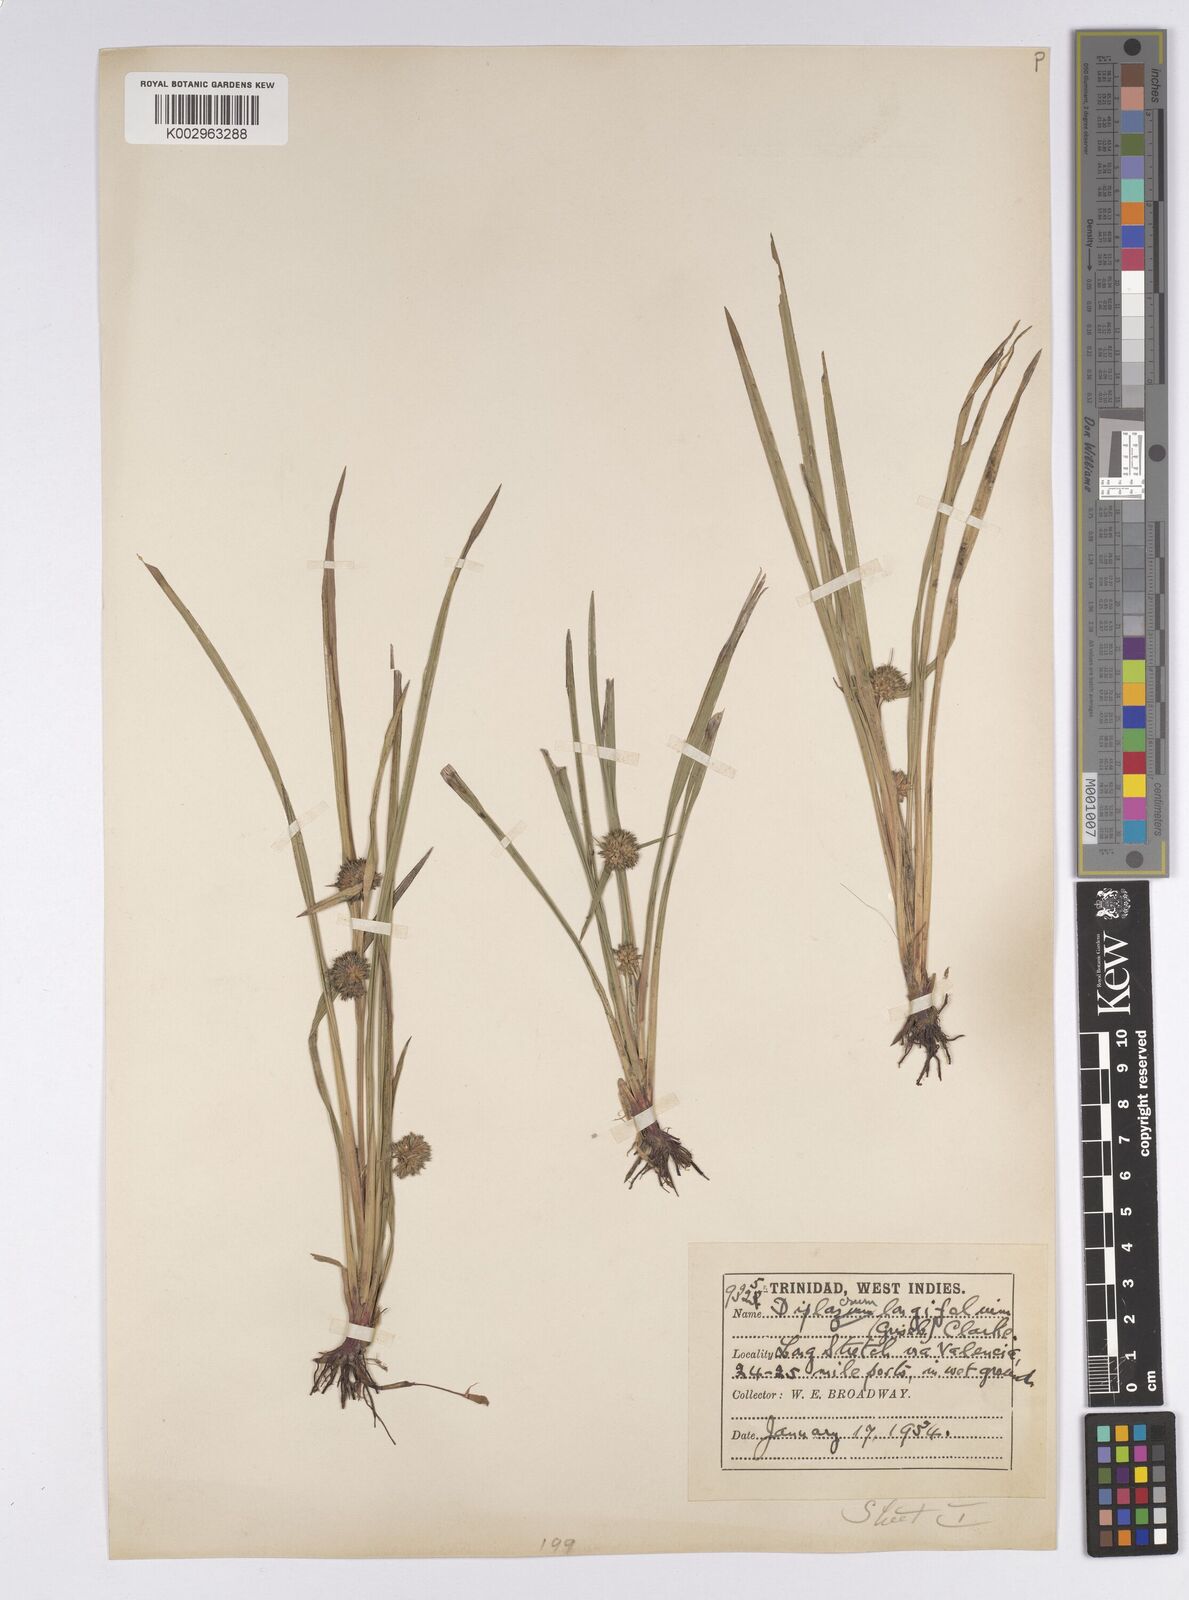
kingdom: Plantae
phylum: Tracheophyta
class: Liliopsida
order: Poales
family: Cyperaceae
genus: Diplacrum
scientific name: Diplacrum capitatum
